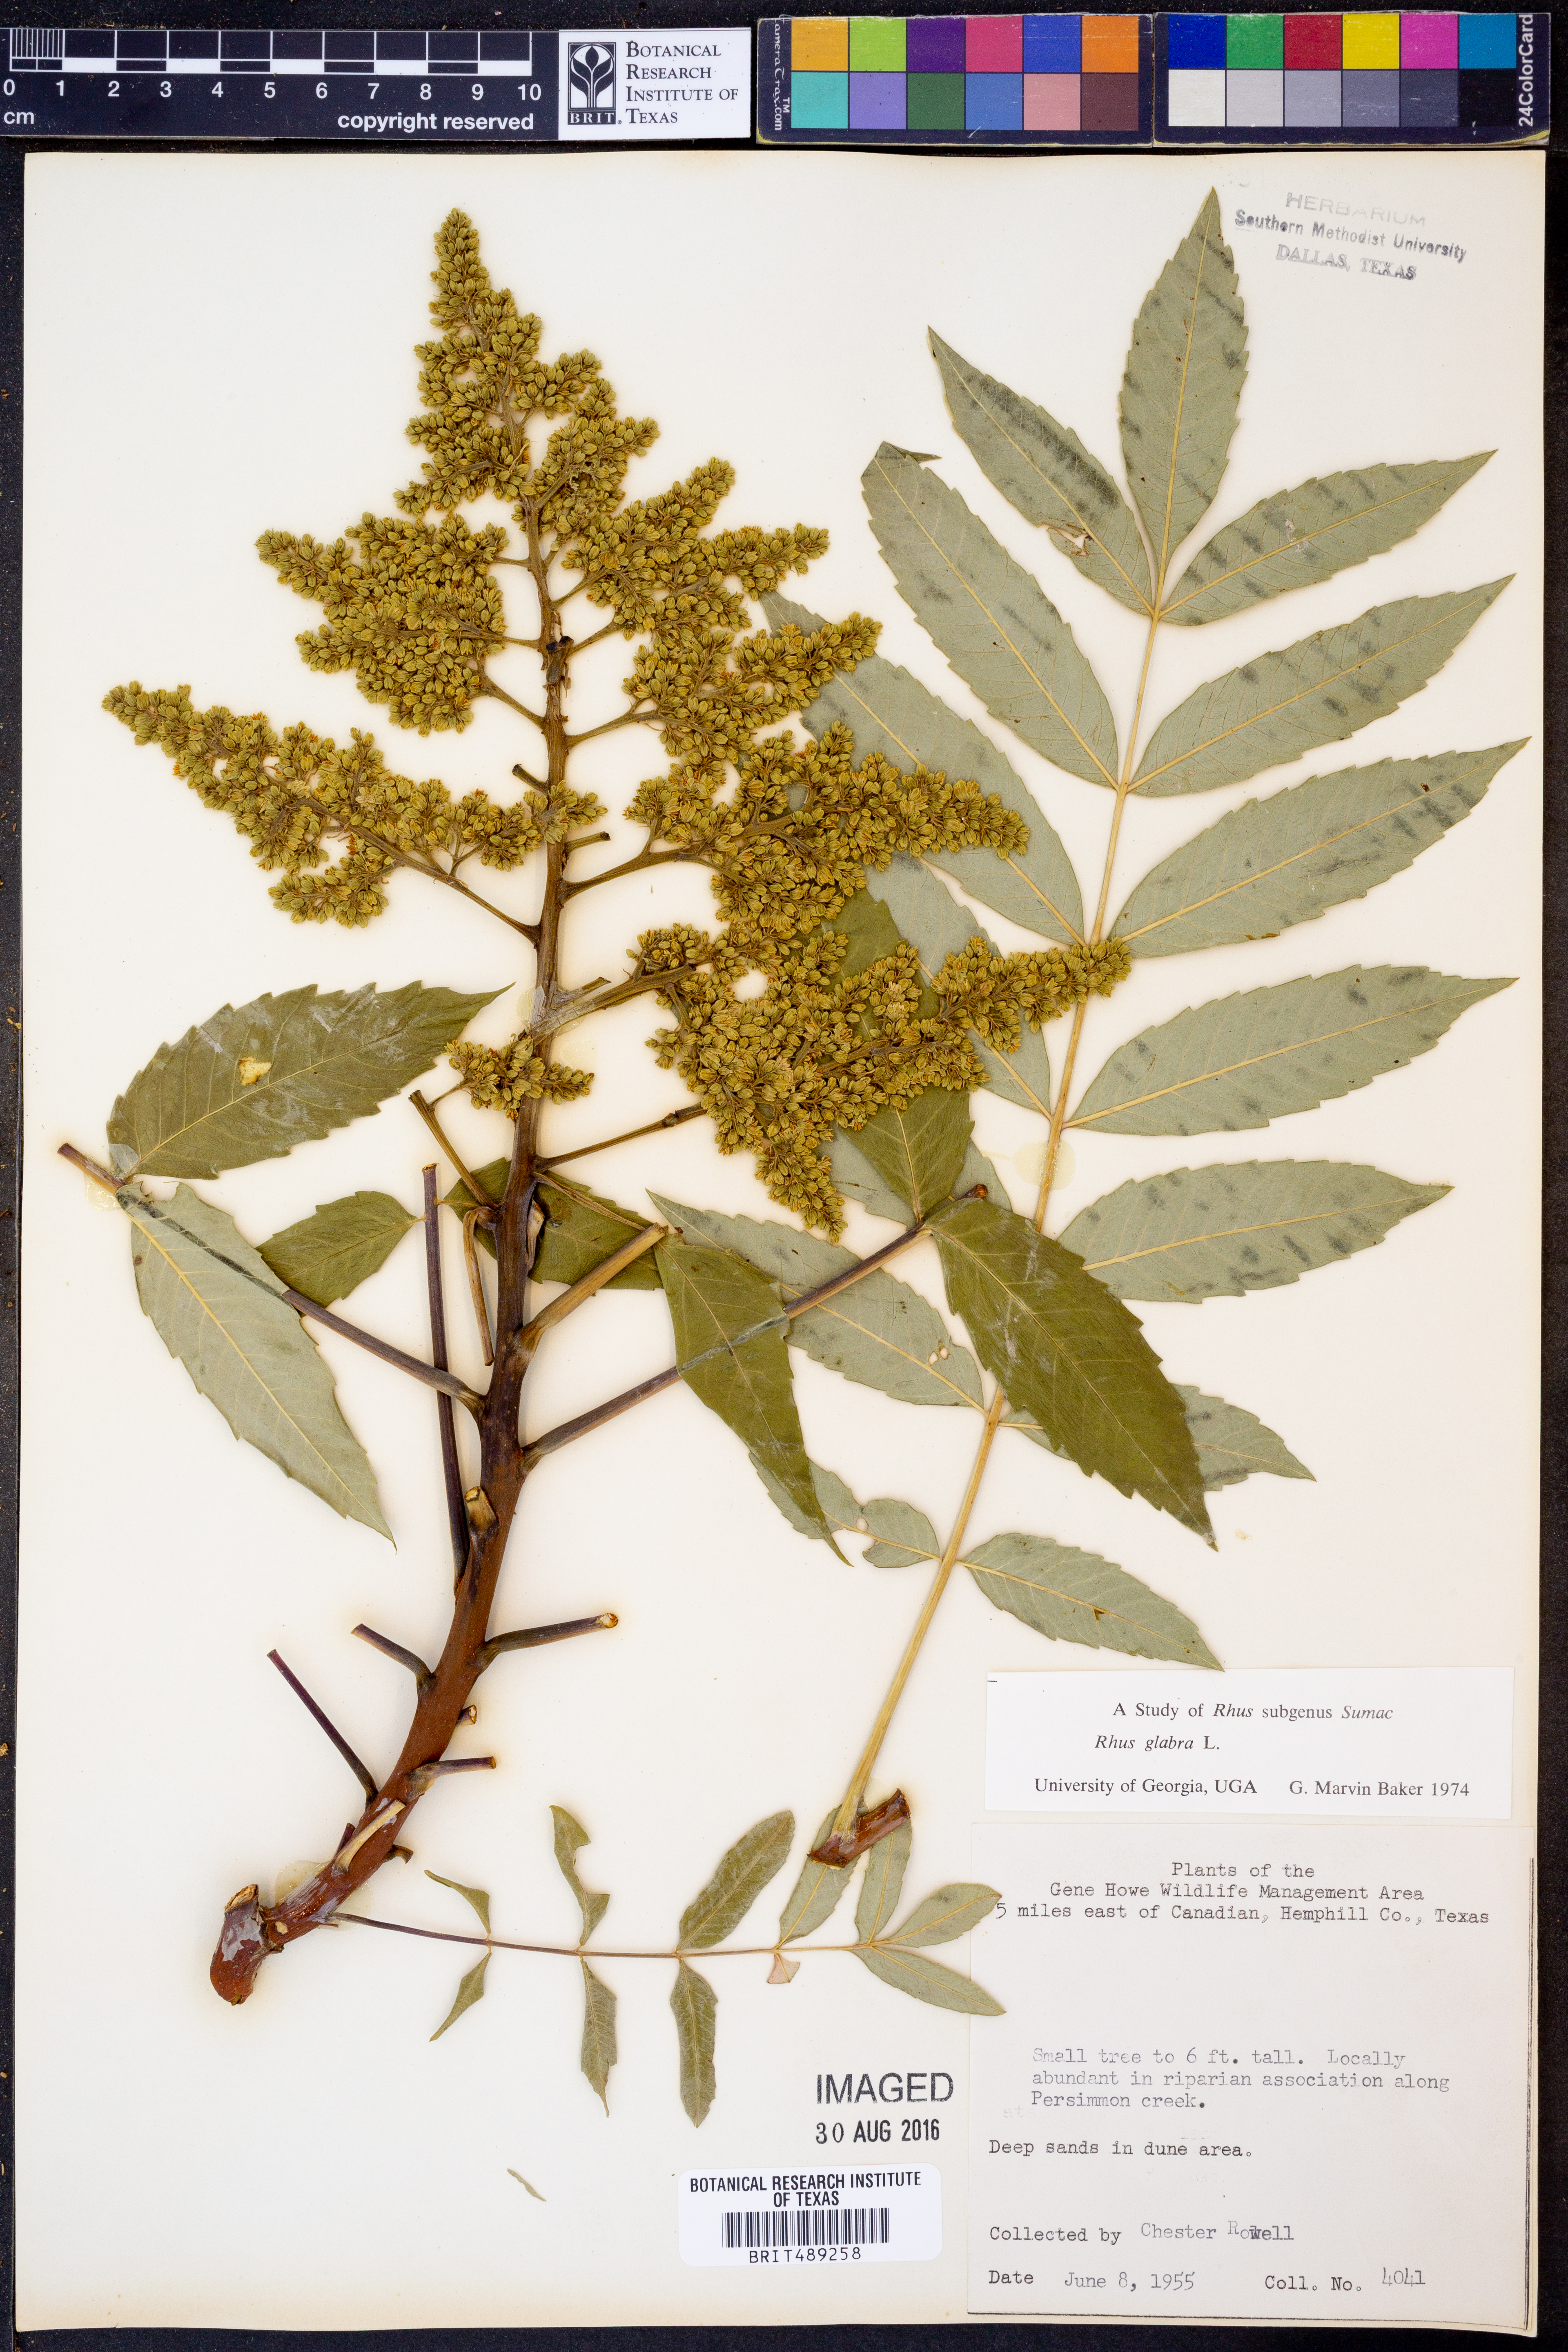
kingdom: Plantae
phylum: Tracheophyta
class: Magnoliopsida
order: Sapindales
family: Anacardiaceae
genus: Rhus
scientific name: Rhus glabra
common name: Scarlet sumac
